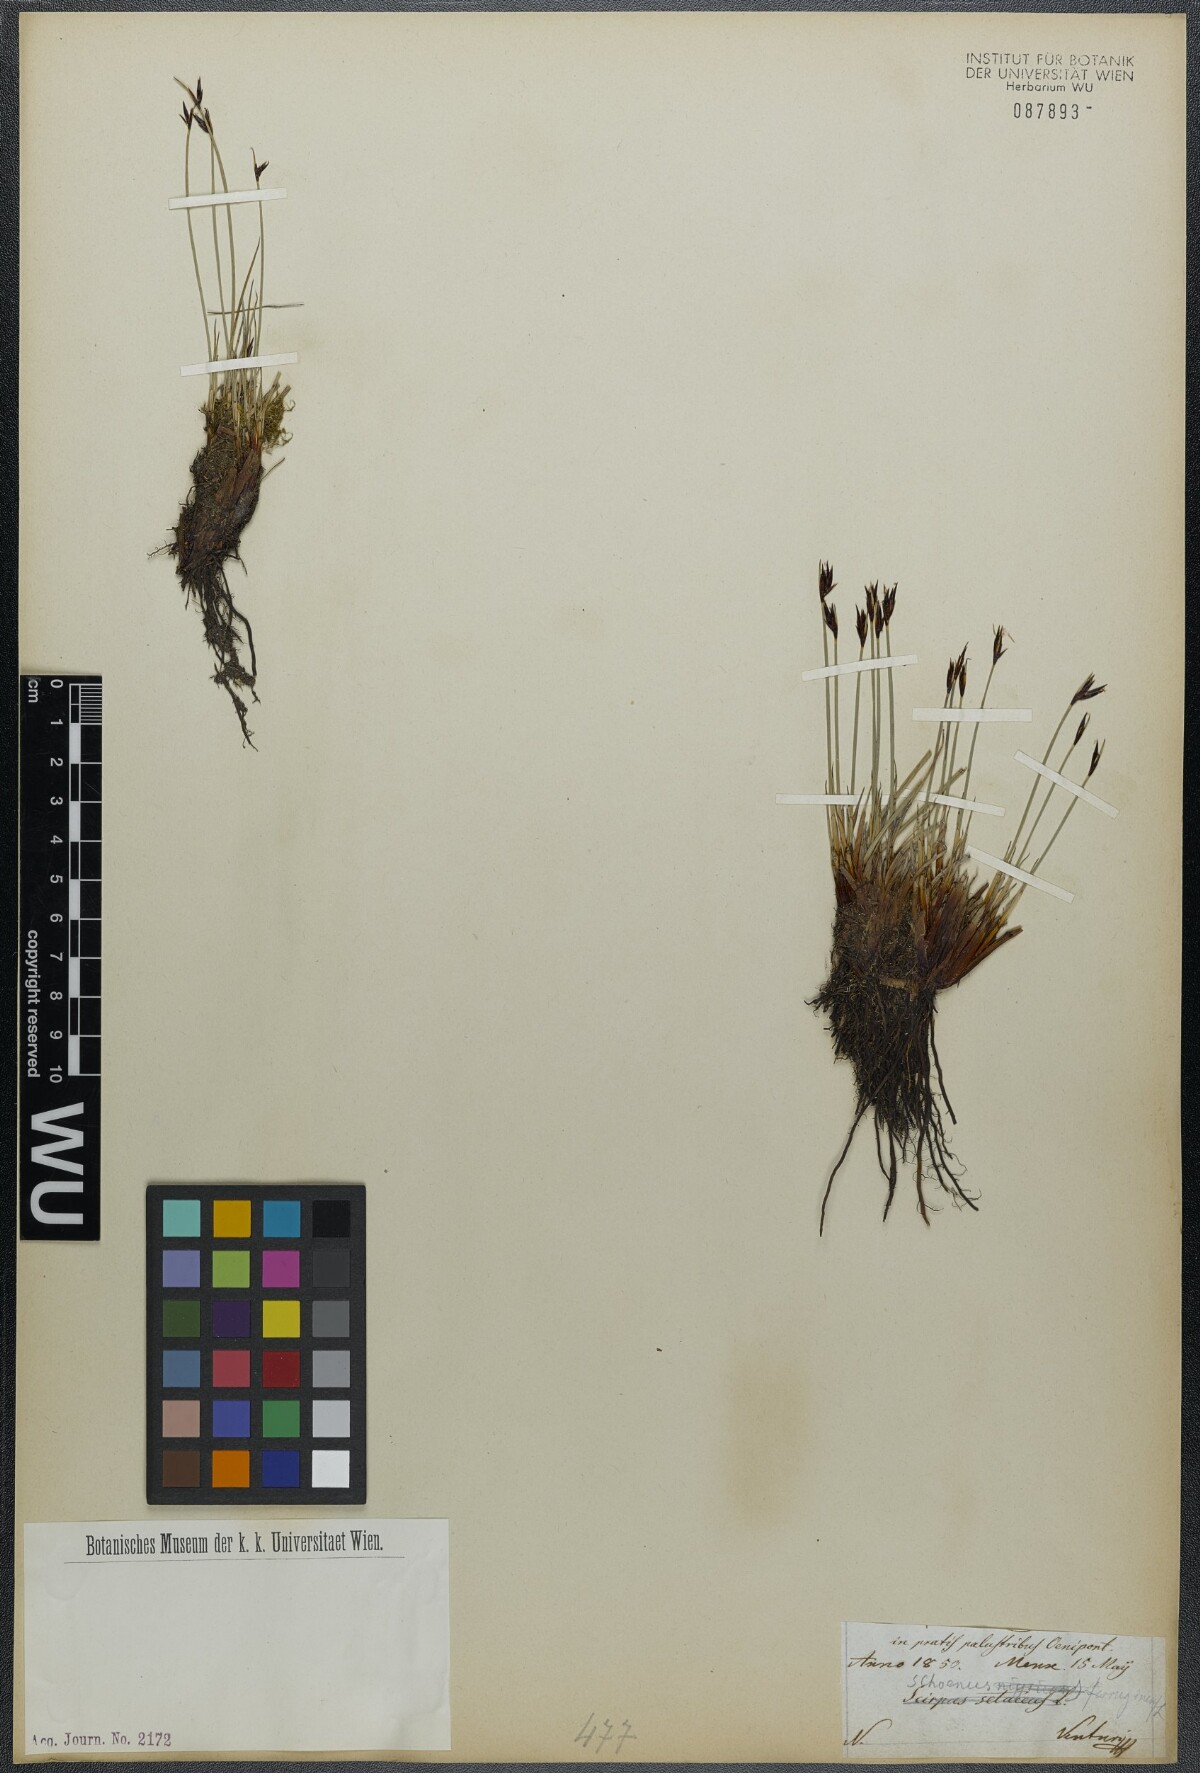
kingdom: Plantae
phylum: Tracheophyta
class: Liliopsida
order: Poales
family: Cyperaceae
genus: Schoenus
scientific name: Schoenus ferrugineus
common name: Brown bog-rush
